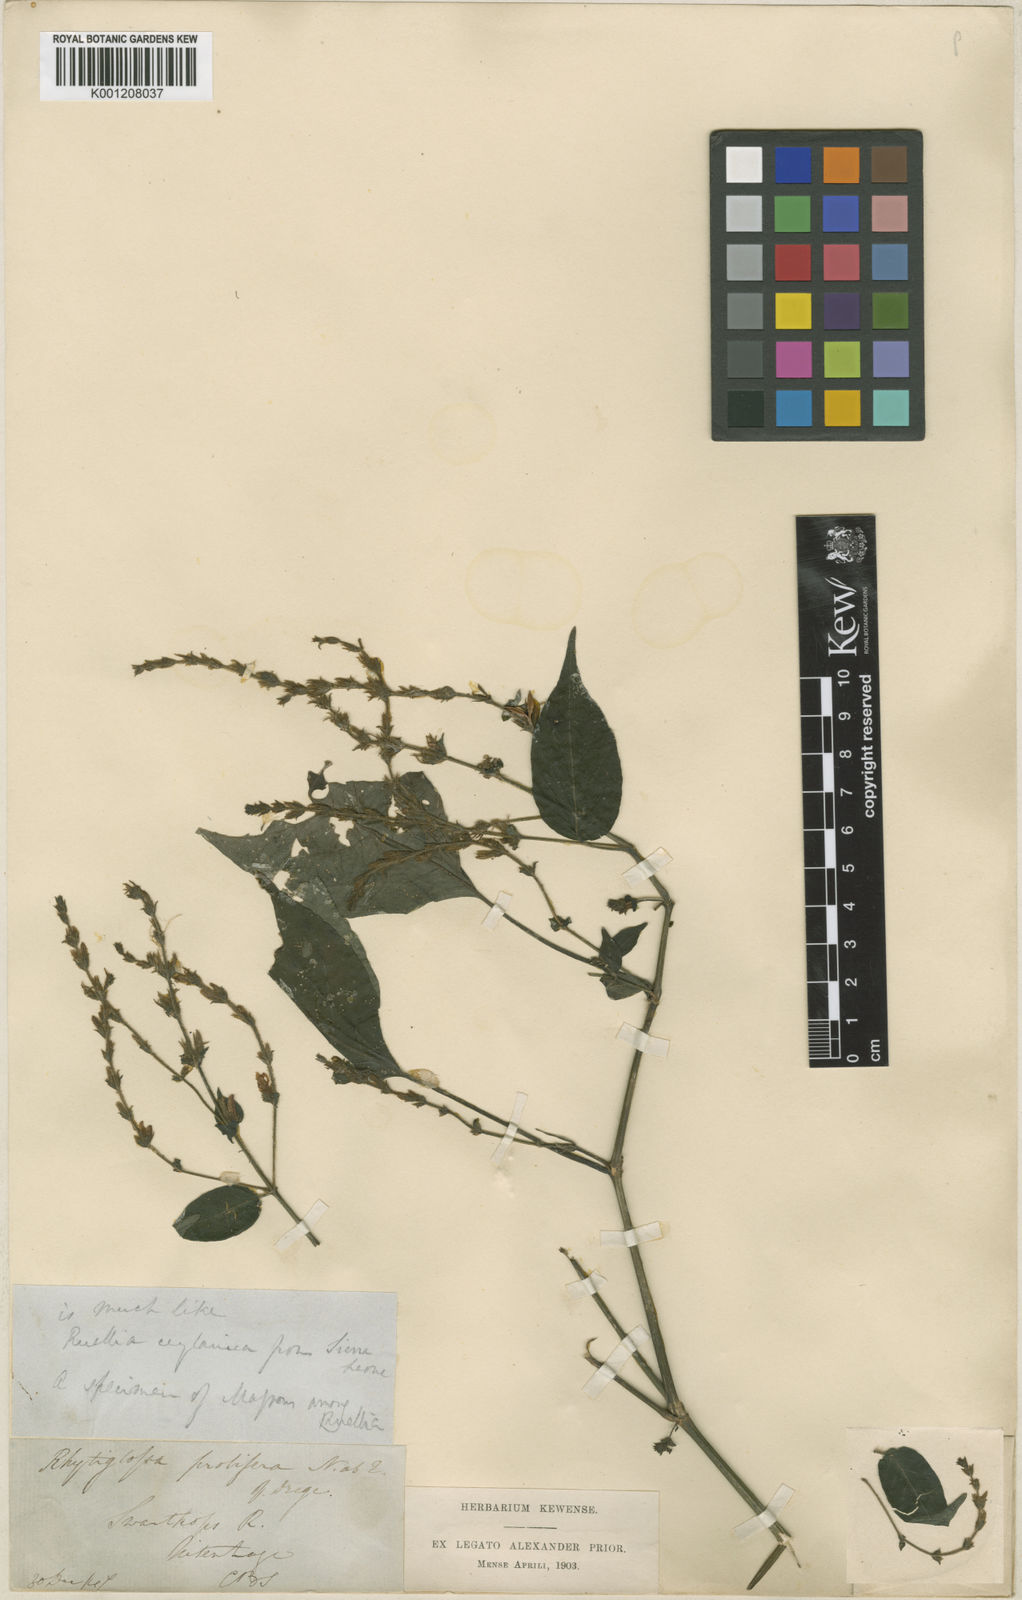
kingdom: Plantae
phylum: Tracheophyta
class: Magnoliopsida
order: Lamiales
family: Acanthaceae
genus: Isoglossa
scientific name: Isoglossa delicatula
